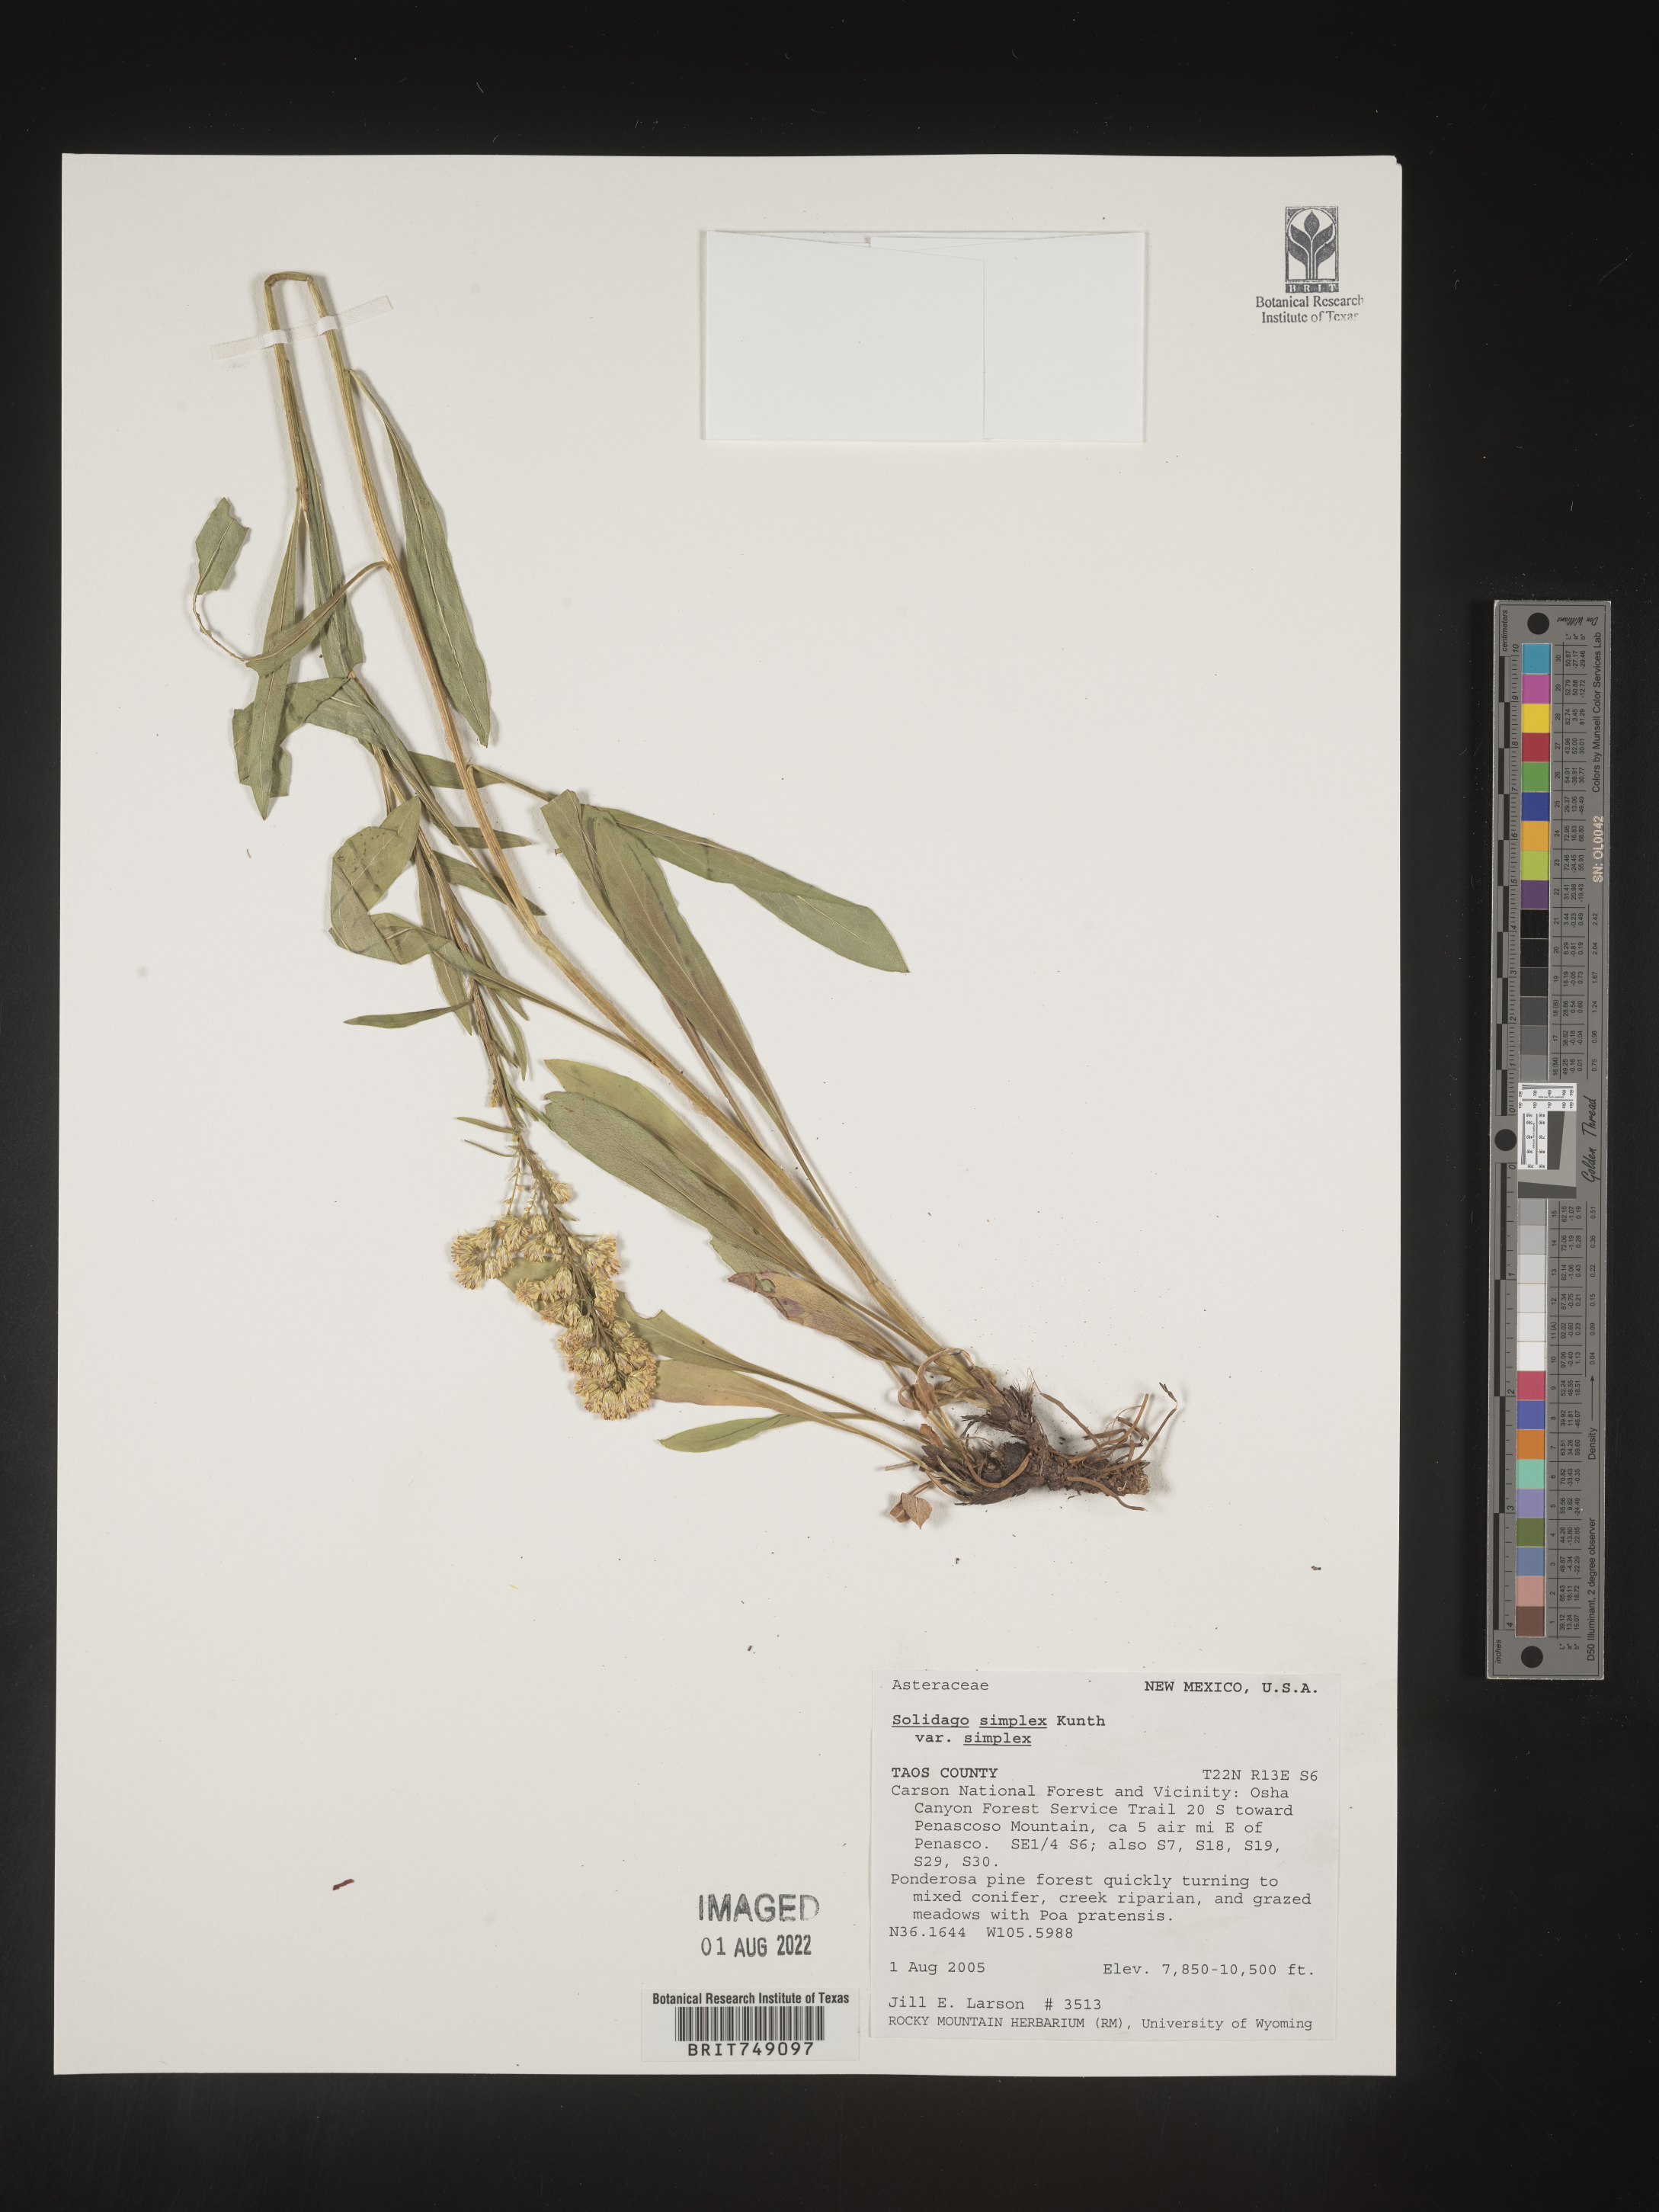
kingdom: Plantae
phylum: Tracheophyta
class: Magnoliopsida
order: Asterales
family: Asteraceae
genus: Solidago
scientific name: Solidago simplex
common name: Sticky goldenrod
